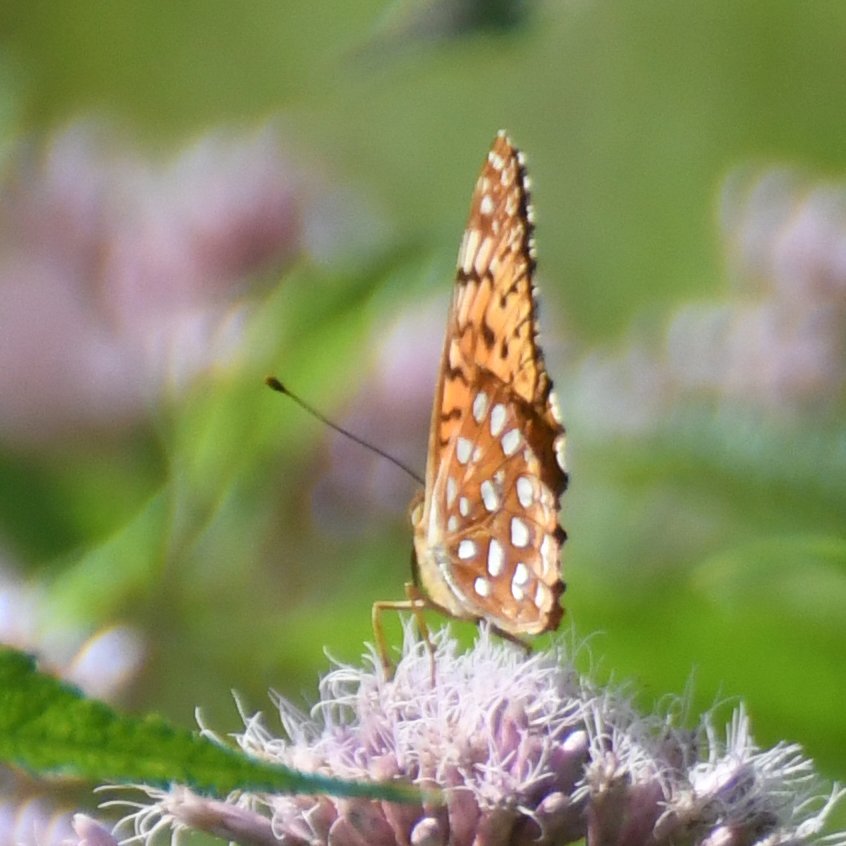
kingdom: Animalia
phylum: Arthropoda
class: Insecta
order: Lepidoptera
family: Nymphalidae
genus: Speyeria
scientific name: Speyeria aphrodite
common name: Aphrodite Fritillary
